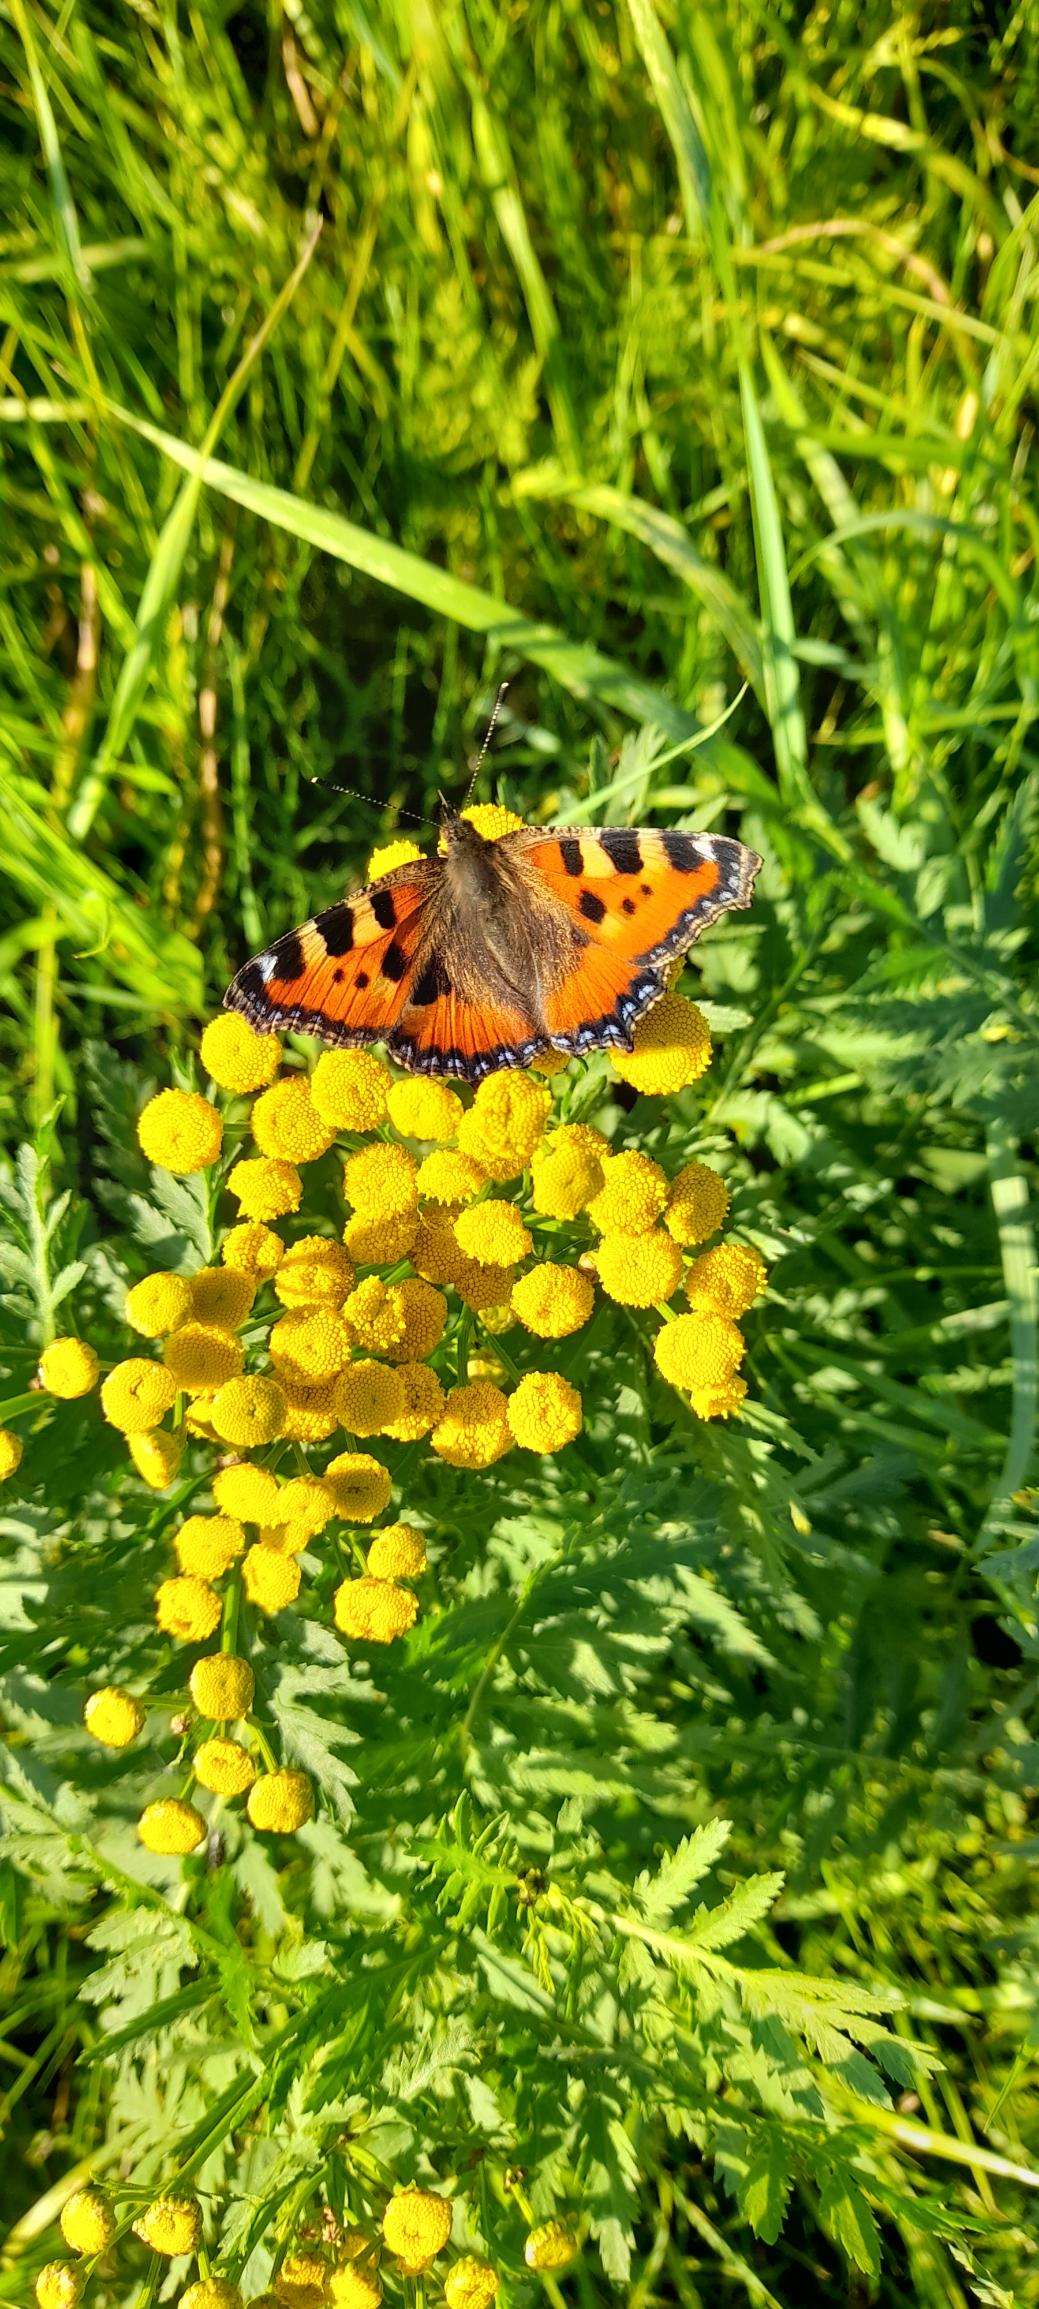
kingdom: Animalia
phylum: Arthropoda
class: Insecta
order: Lepidoptera
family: Nymphalidae
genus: Aglais
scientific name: Aglais urticae
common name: Nældens takvinge
